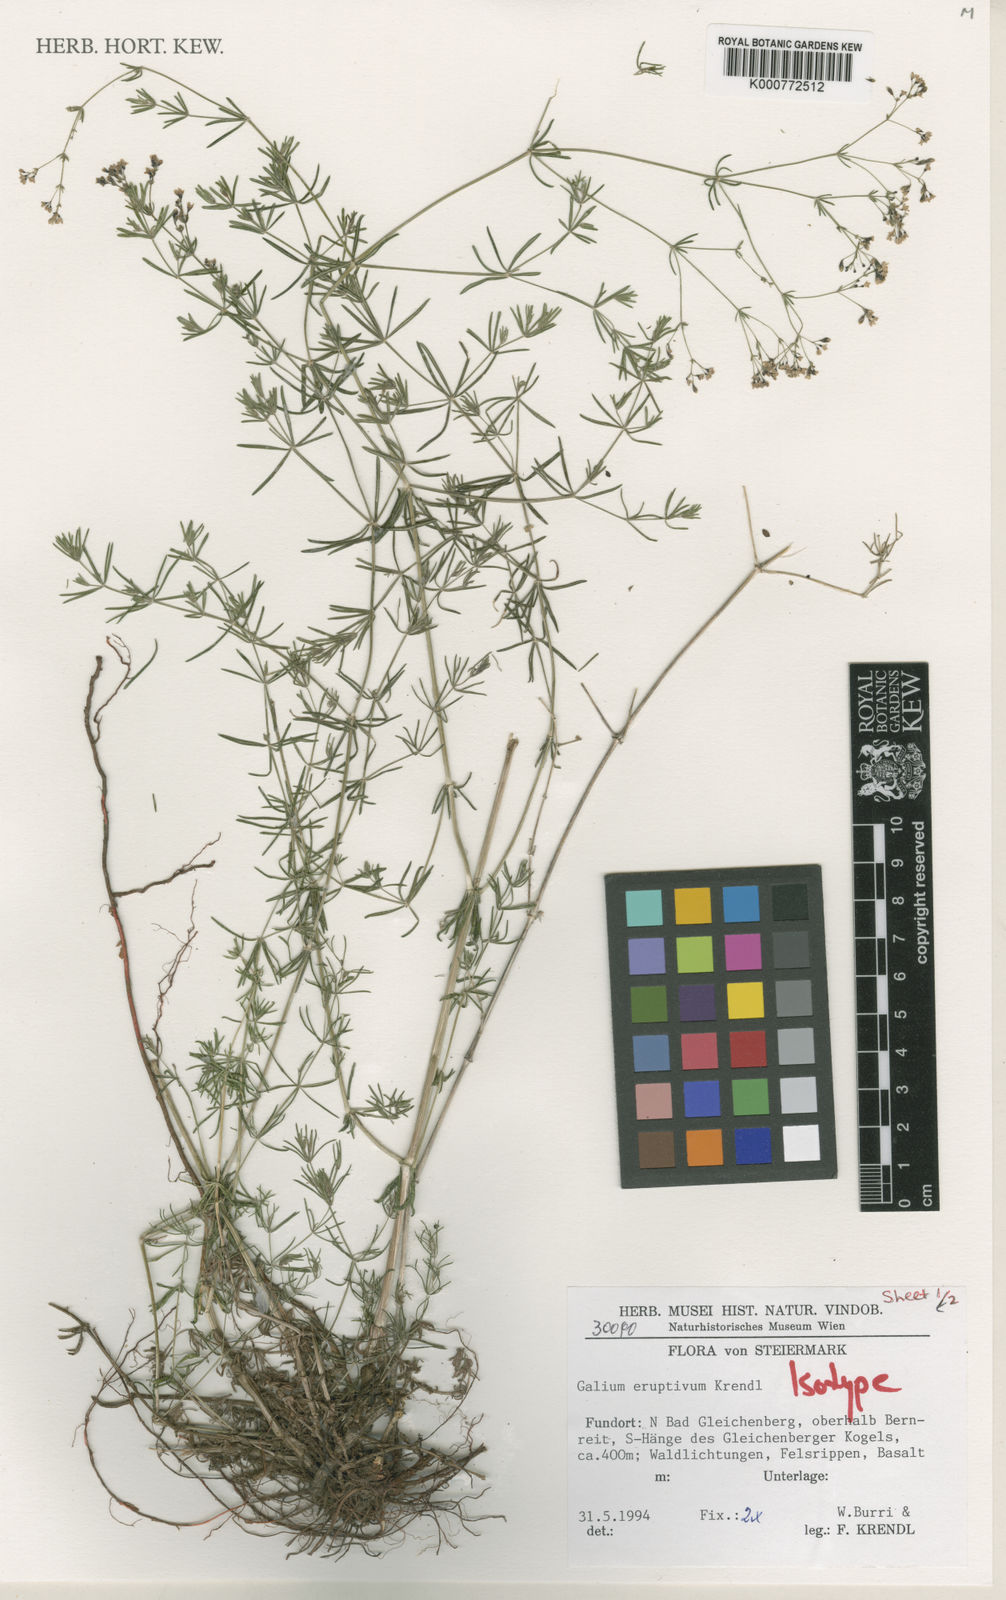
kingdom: Plantae
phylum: Tracheophyta
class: Magnoliopsida
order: Gentianales
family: Rubiaceae
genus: Galium
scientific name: Galium eruptivum
